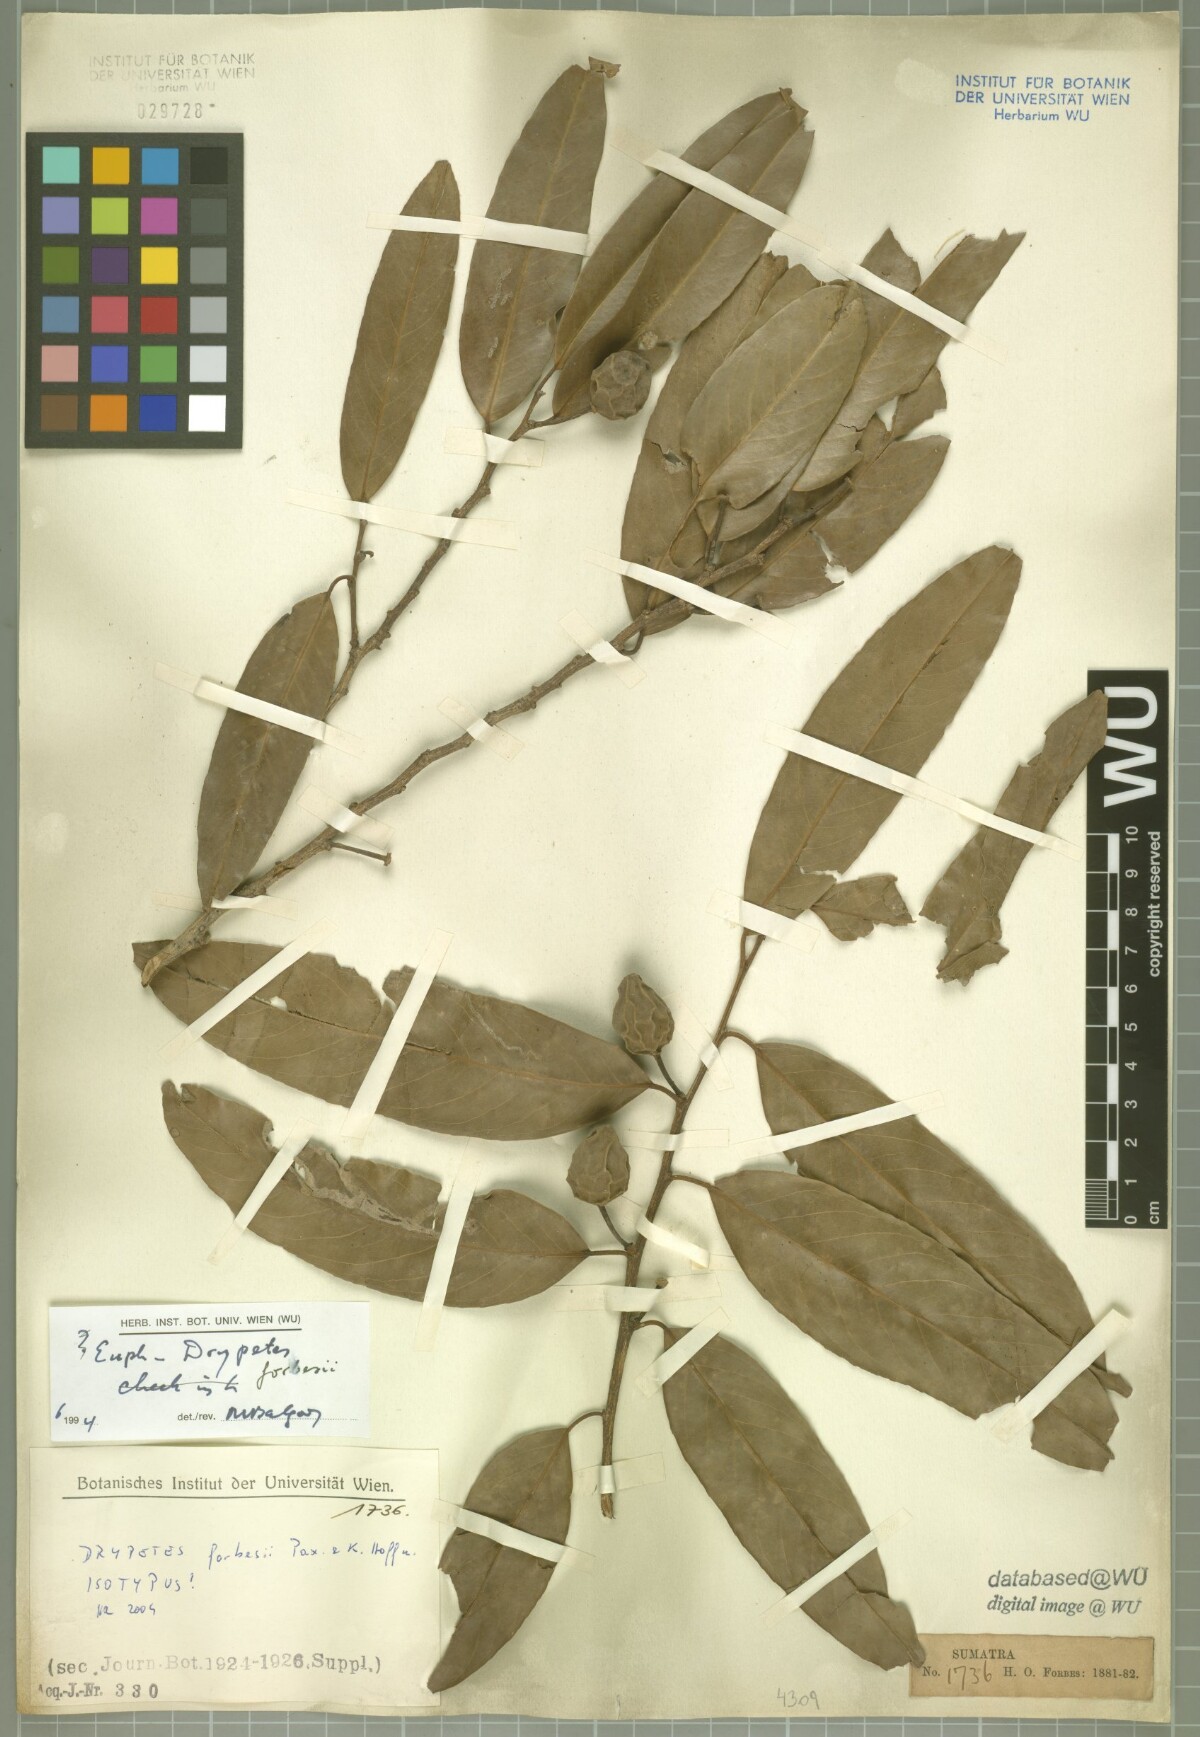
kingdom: Plantae
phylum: Tracheophyta
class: Magnoliopsida
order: Malpighiales
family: Putranjivaceae
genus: Drypetes
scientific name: Drypetes forbesii
